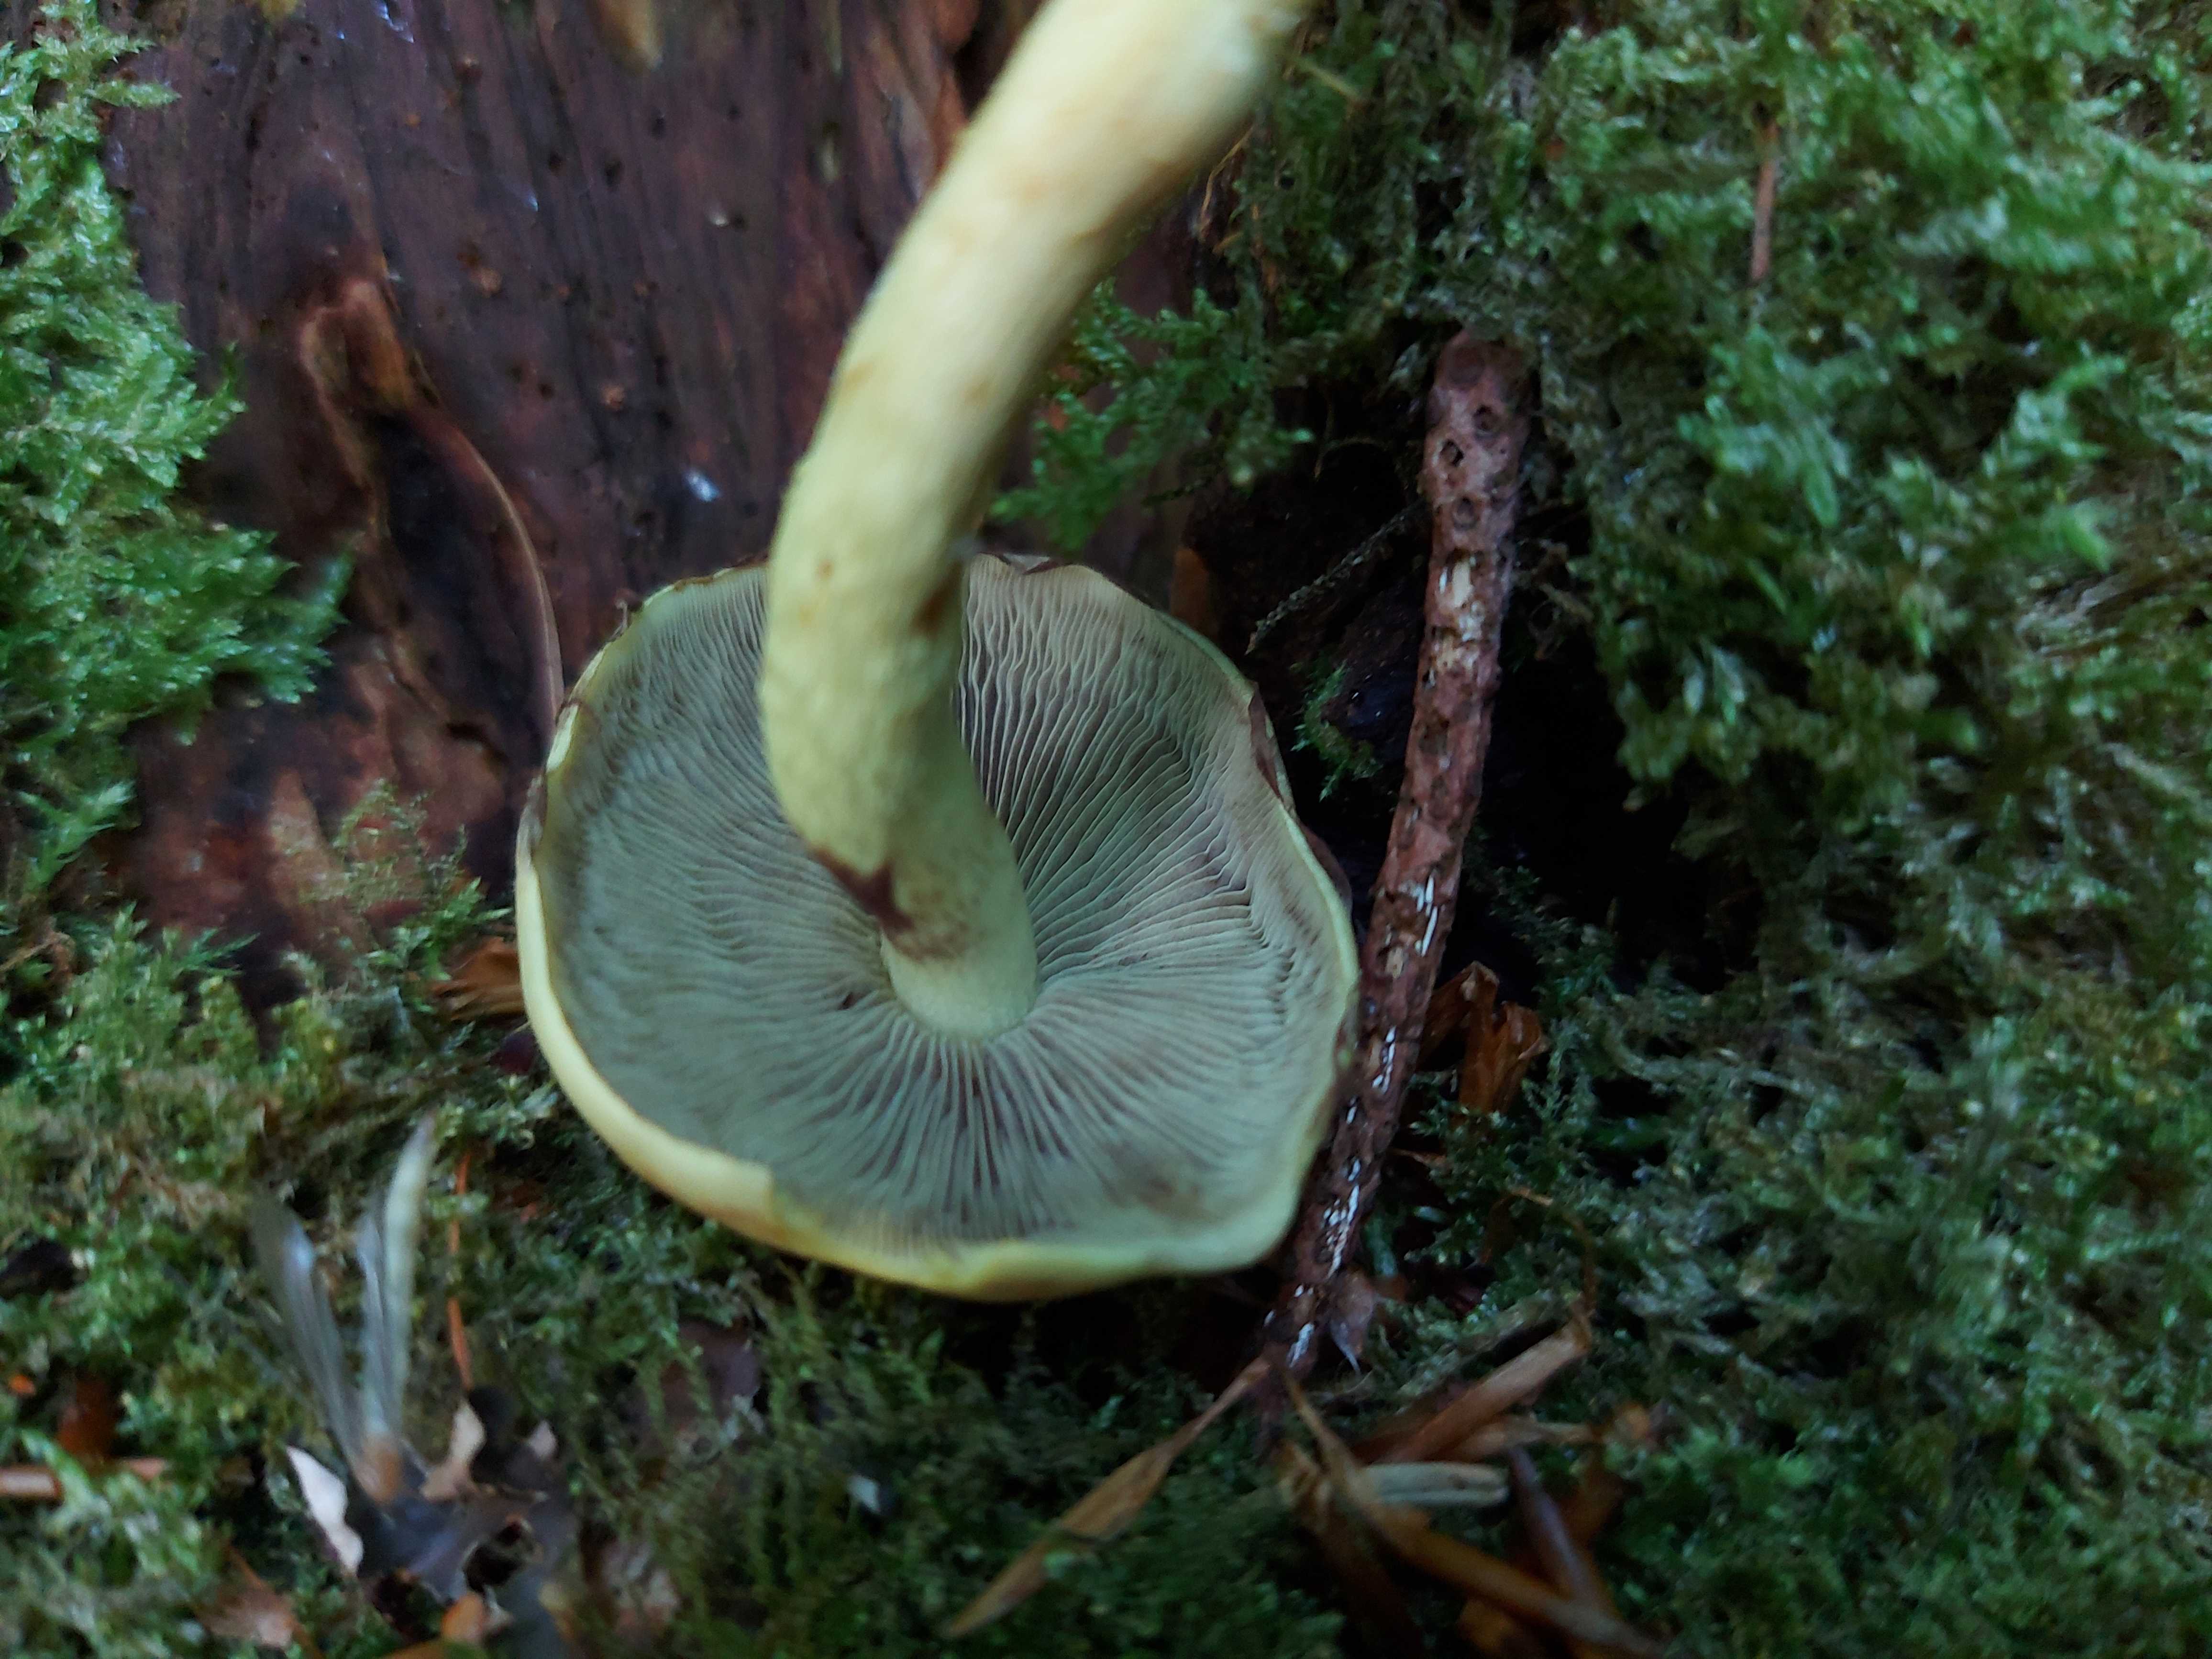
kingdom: Fungi
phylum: Basidiomycota
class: Agaricomycetes
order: Agaricales
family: Strophariaceae
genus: Hypholoma
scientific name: Hypholoma fasciculare
